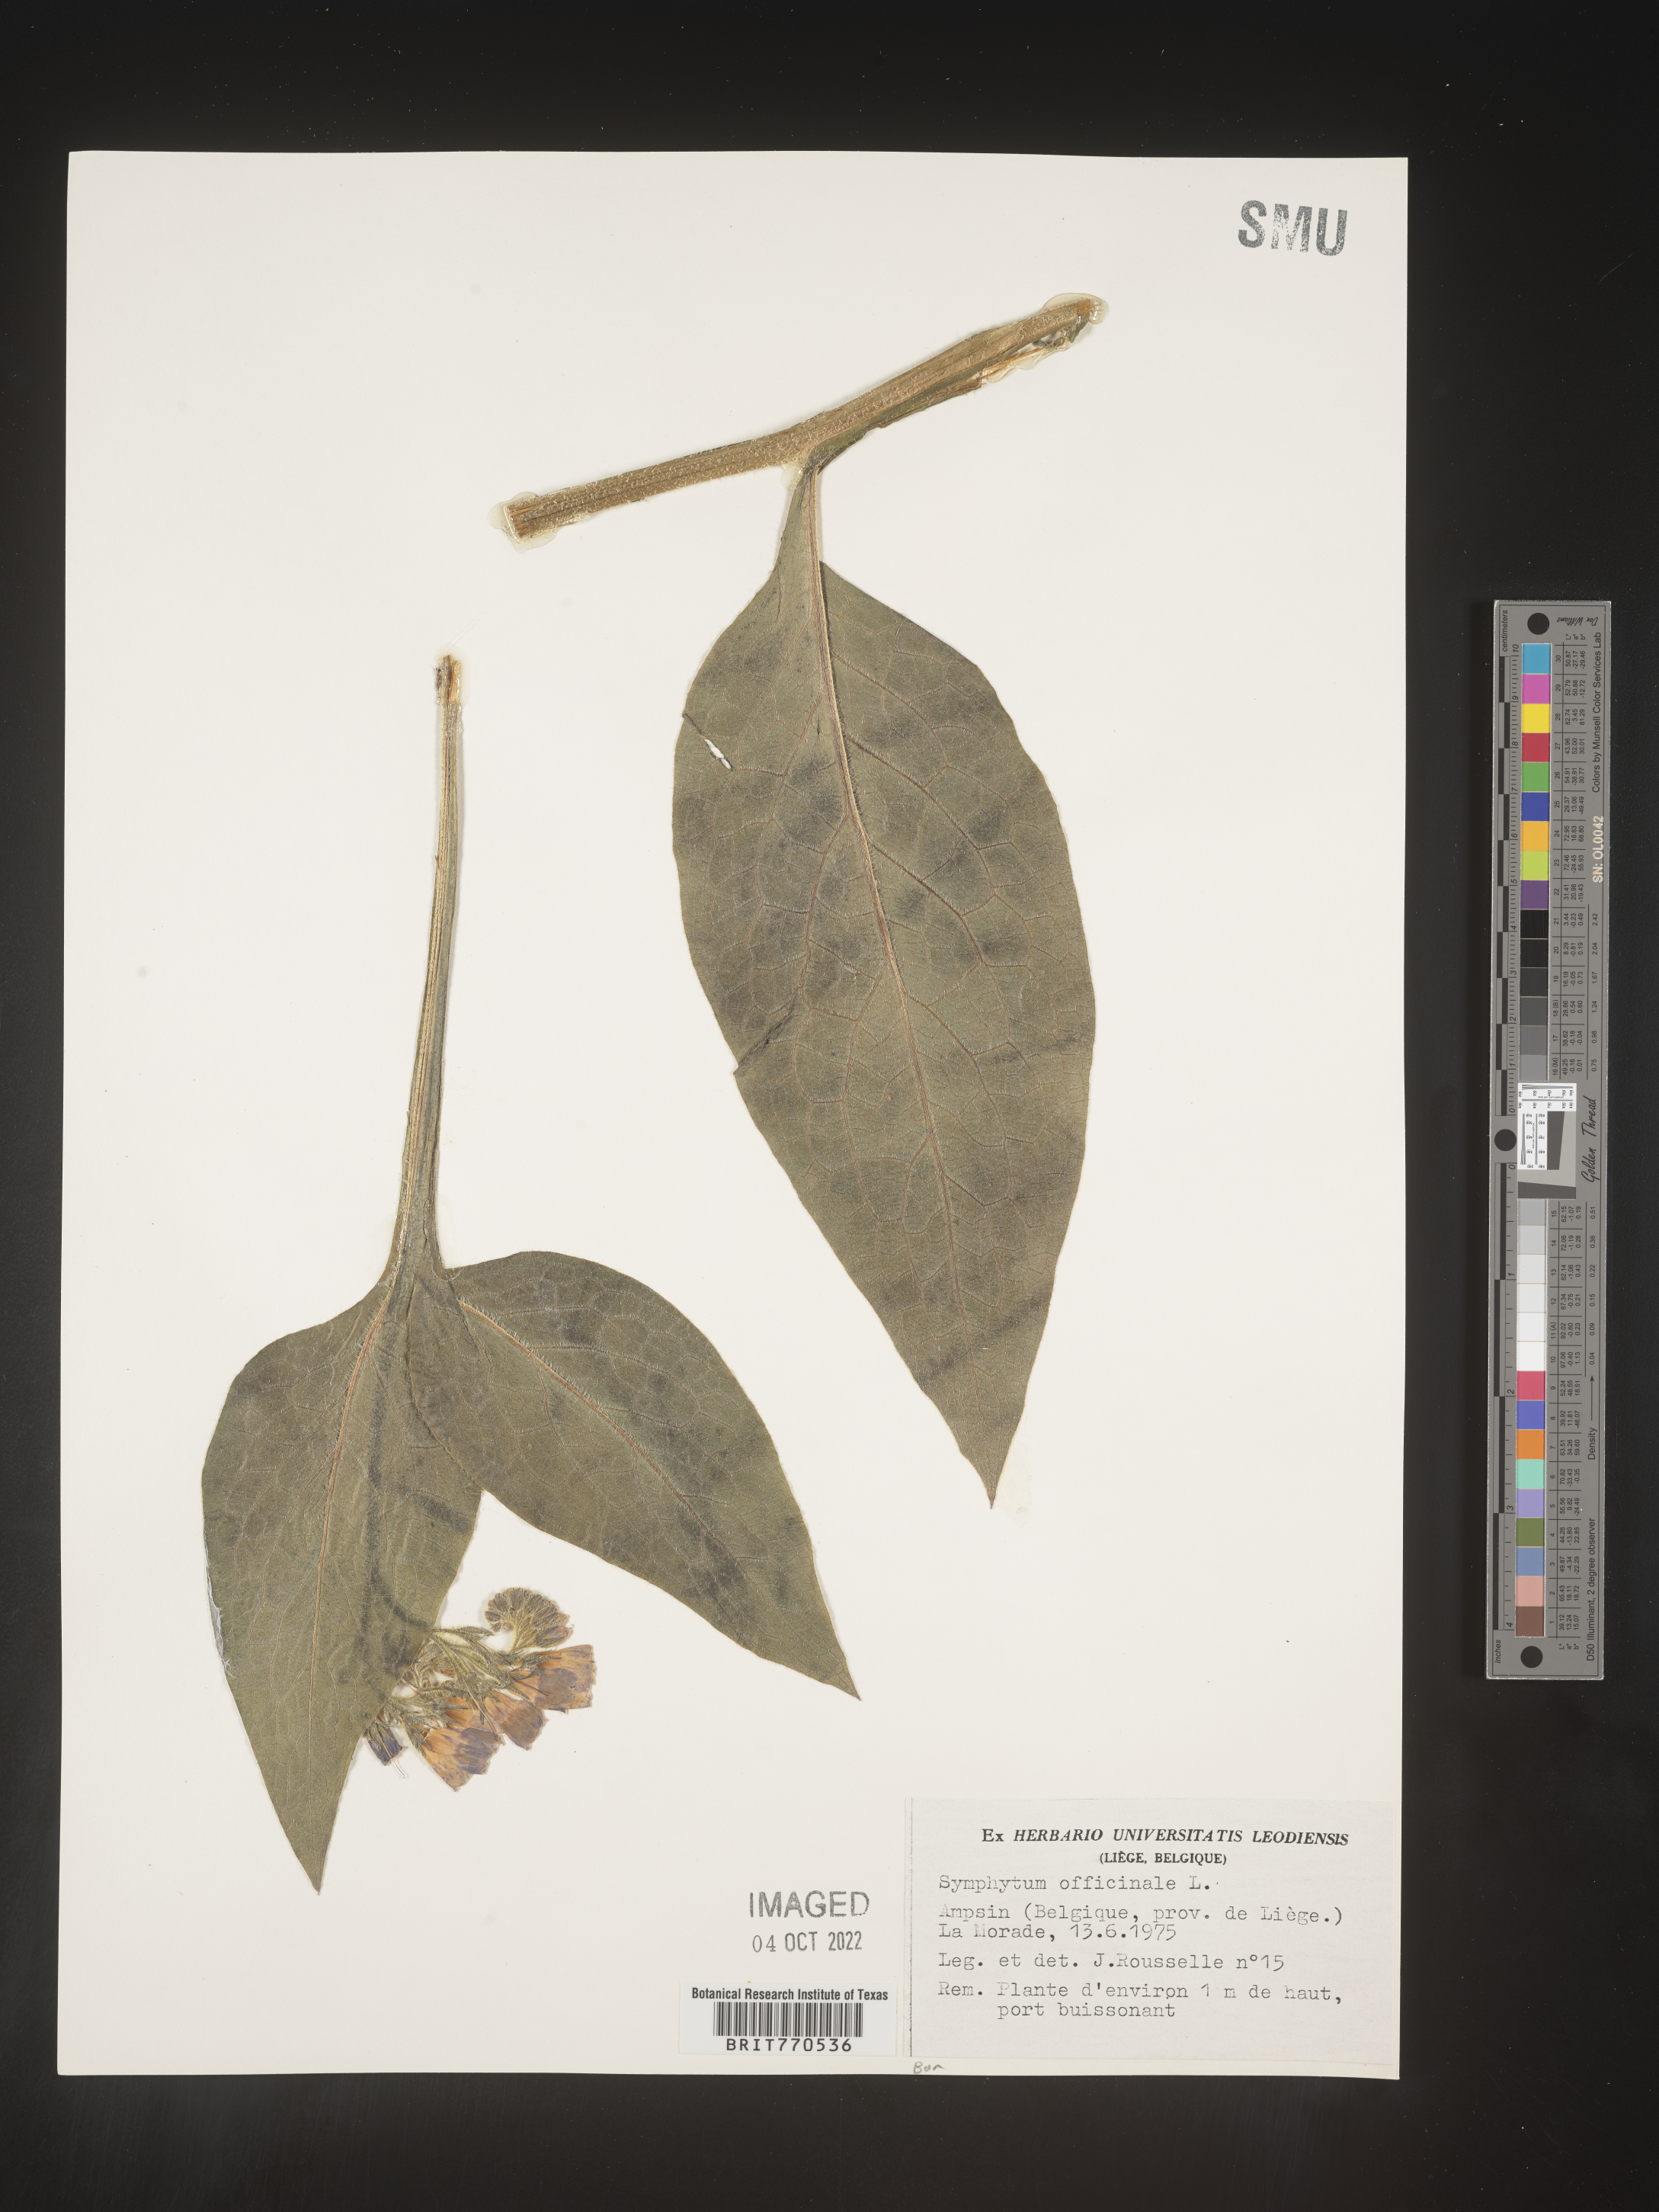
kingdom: Plantae
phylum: Tracheophyta
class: Magnoliopsida
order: Boraginales
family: Boraginaceae
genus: Symphytum
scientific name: Symphytum
